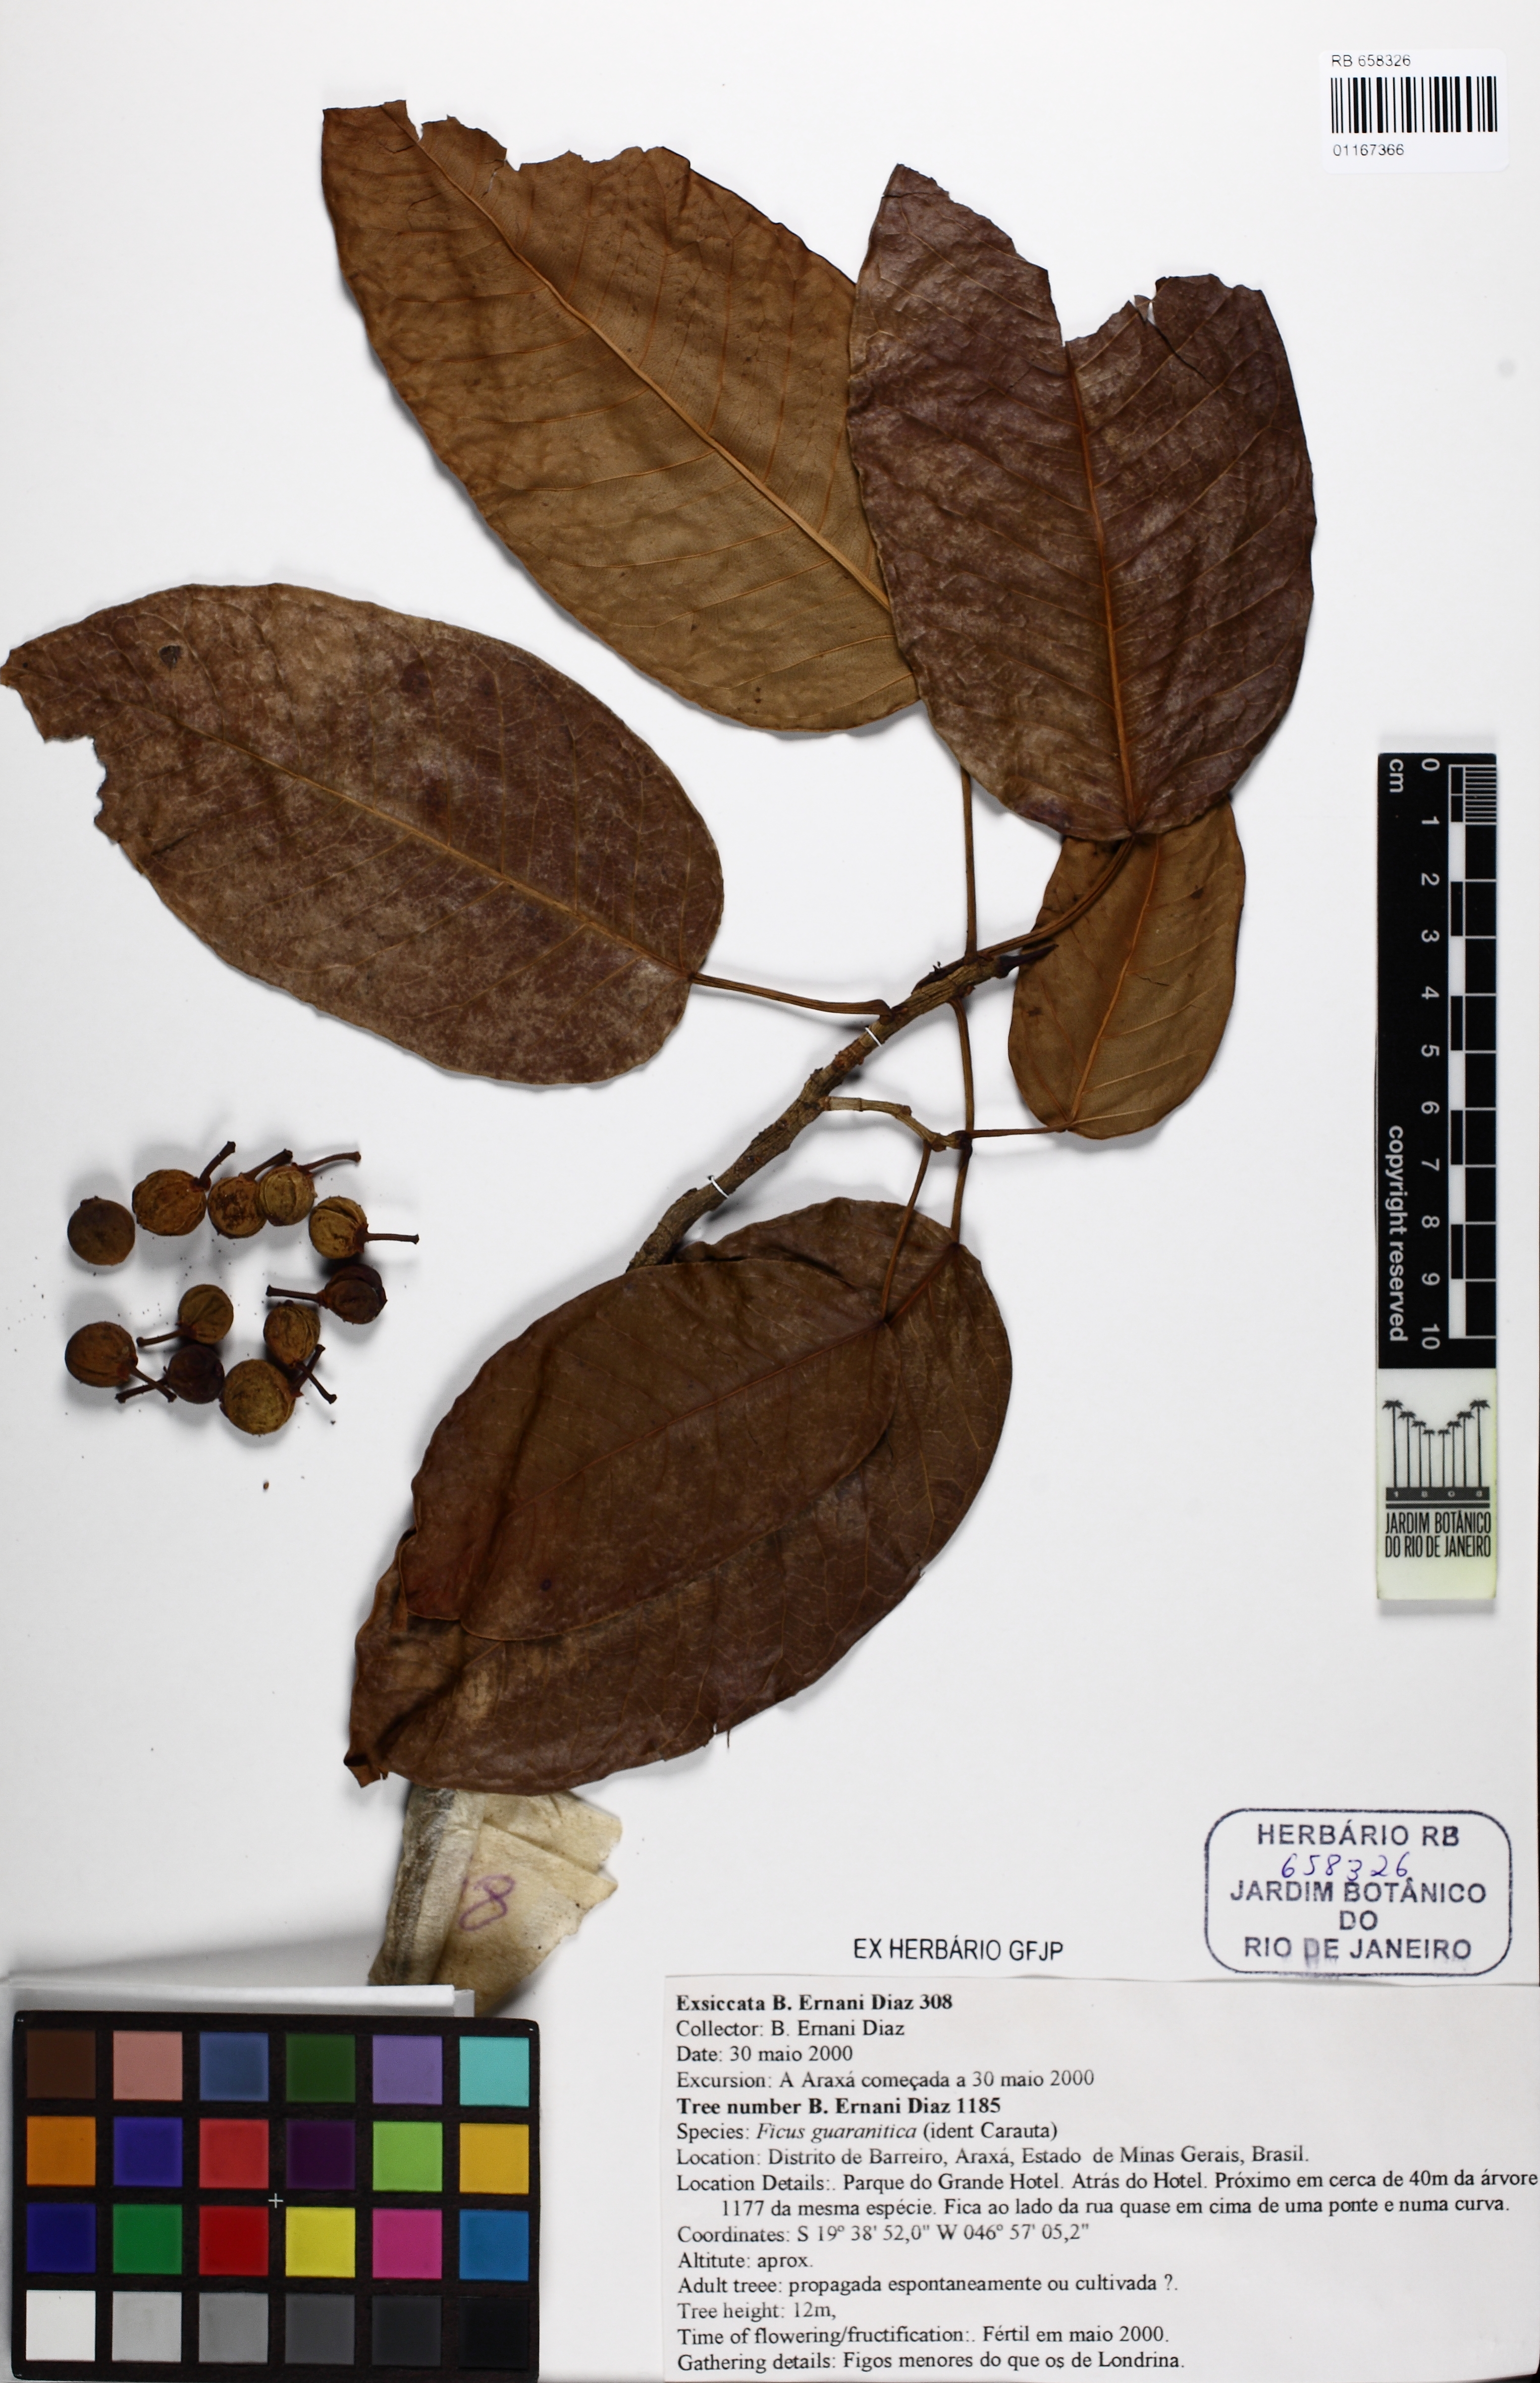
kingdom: Plantae
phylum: Tracheophyta
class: Magnoliopsida
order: Rosales
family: Moraceae
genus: Ficus
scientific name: Ficus guaranitica
